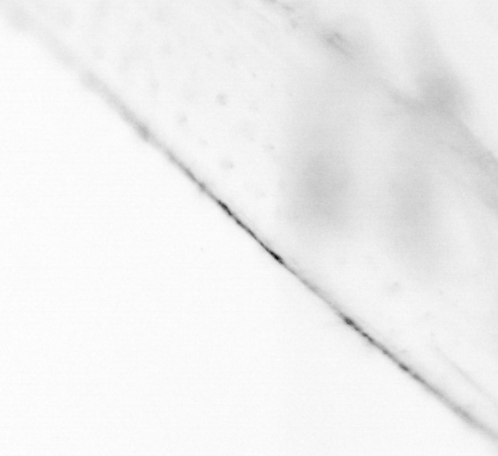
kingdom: Animalia
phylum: Chaetognatha
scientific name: Chaetognatha
